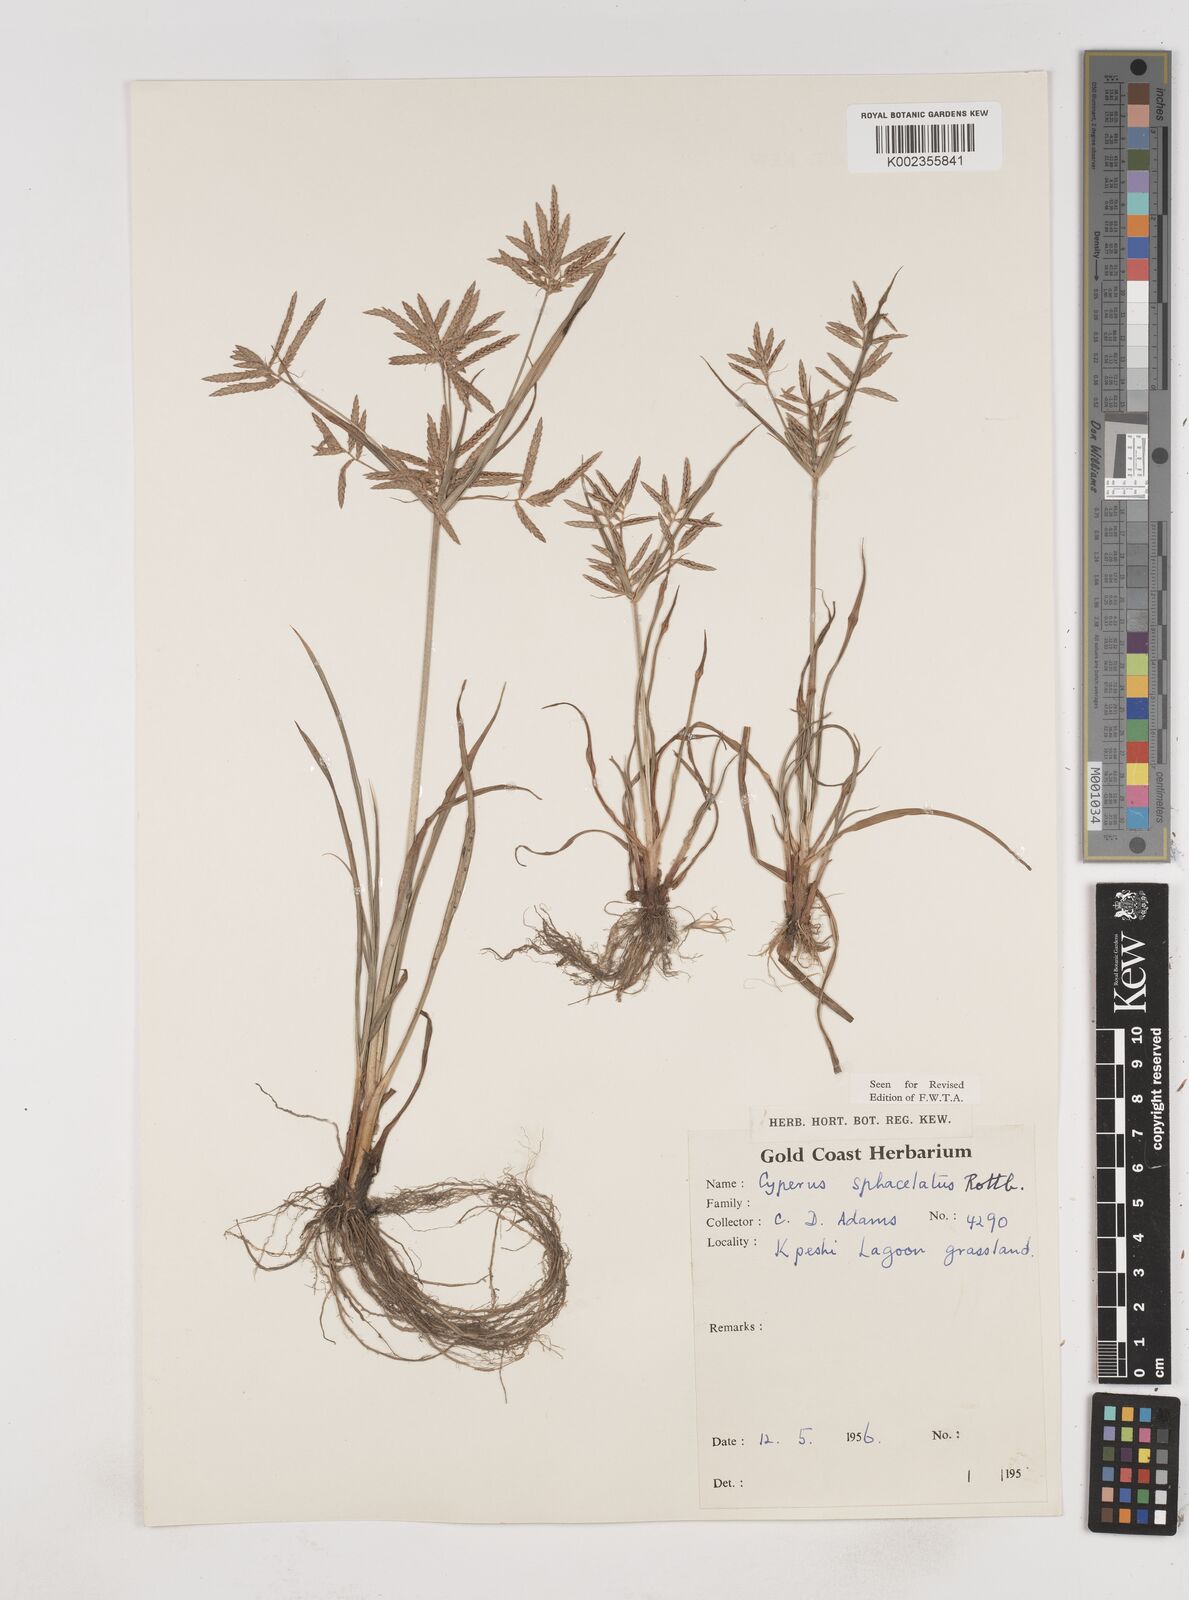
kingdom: Plantae
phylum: Tracheophyta
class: Liliopsida
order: Poales
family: Cyperaceae
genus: Cyperus
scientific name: Cyperus sphacelatus
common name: Roadside flatsedge
